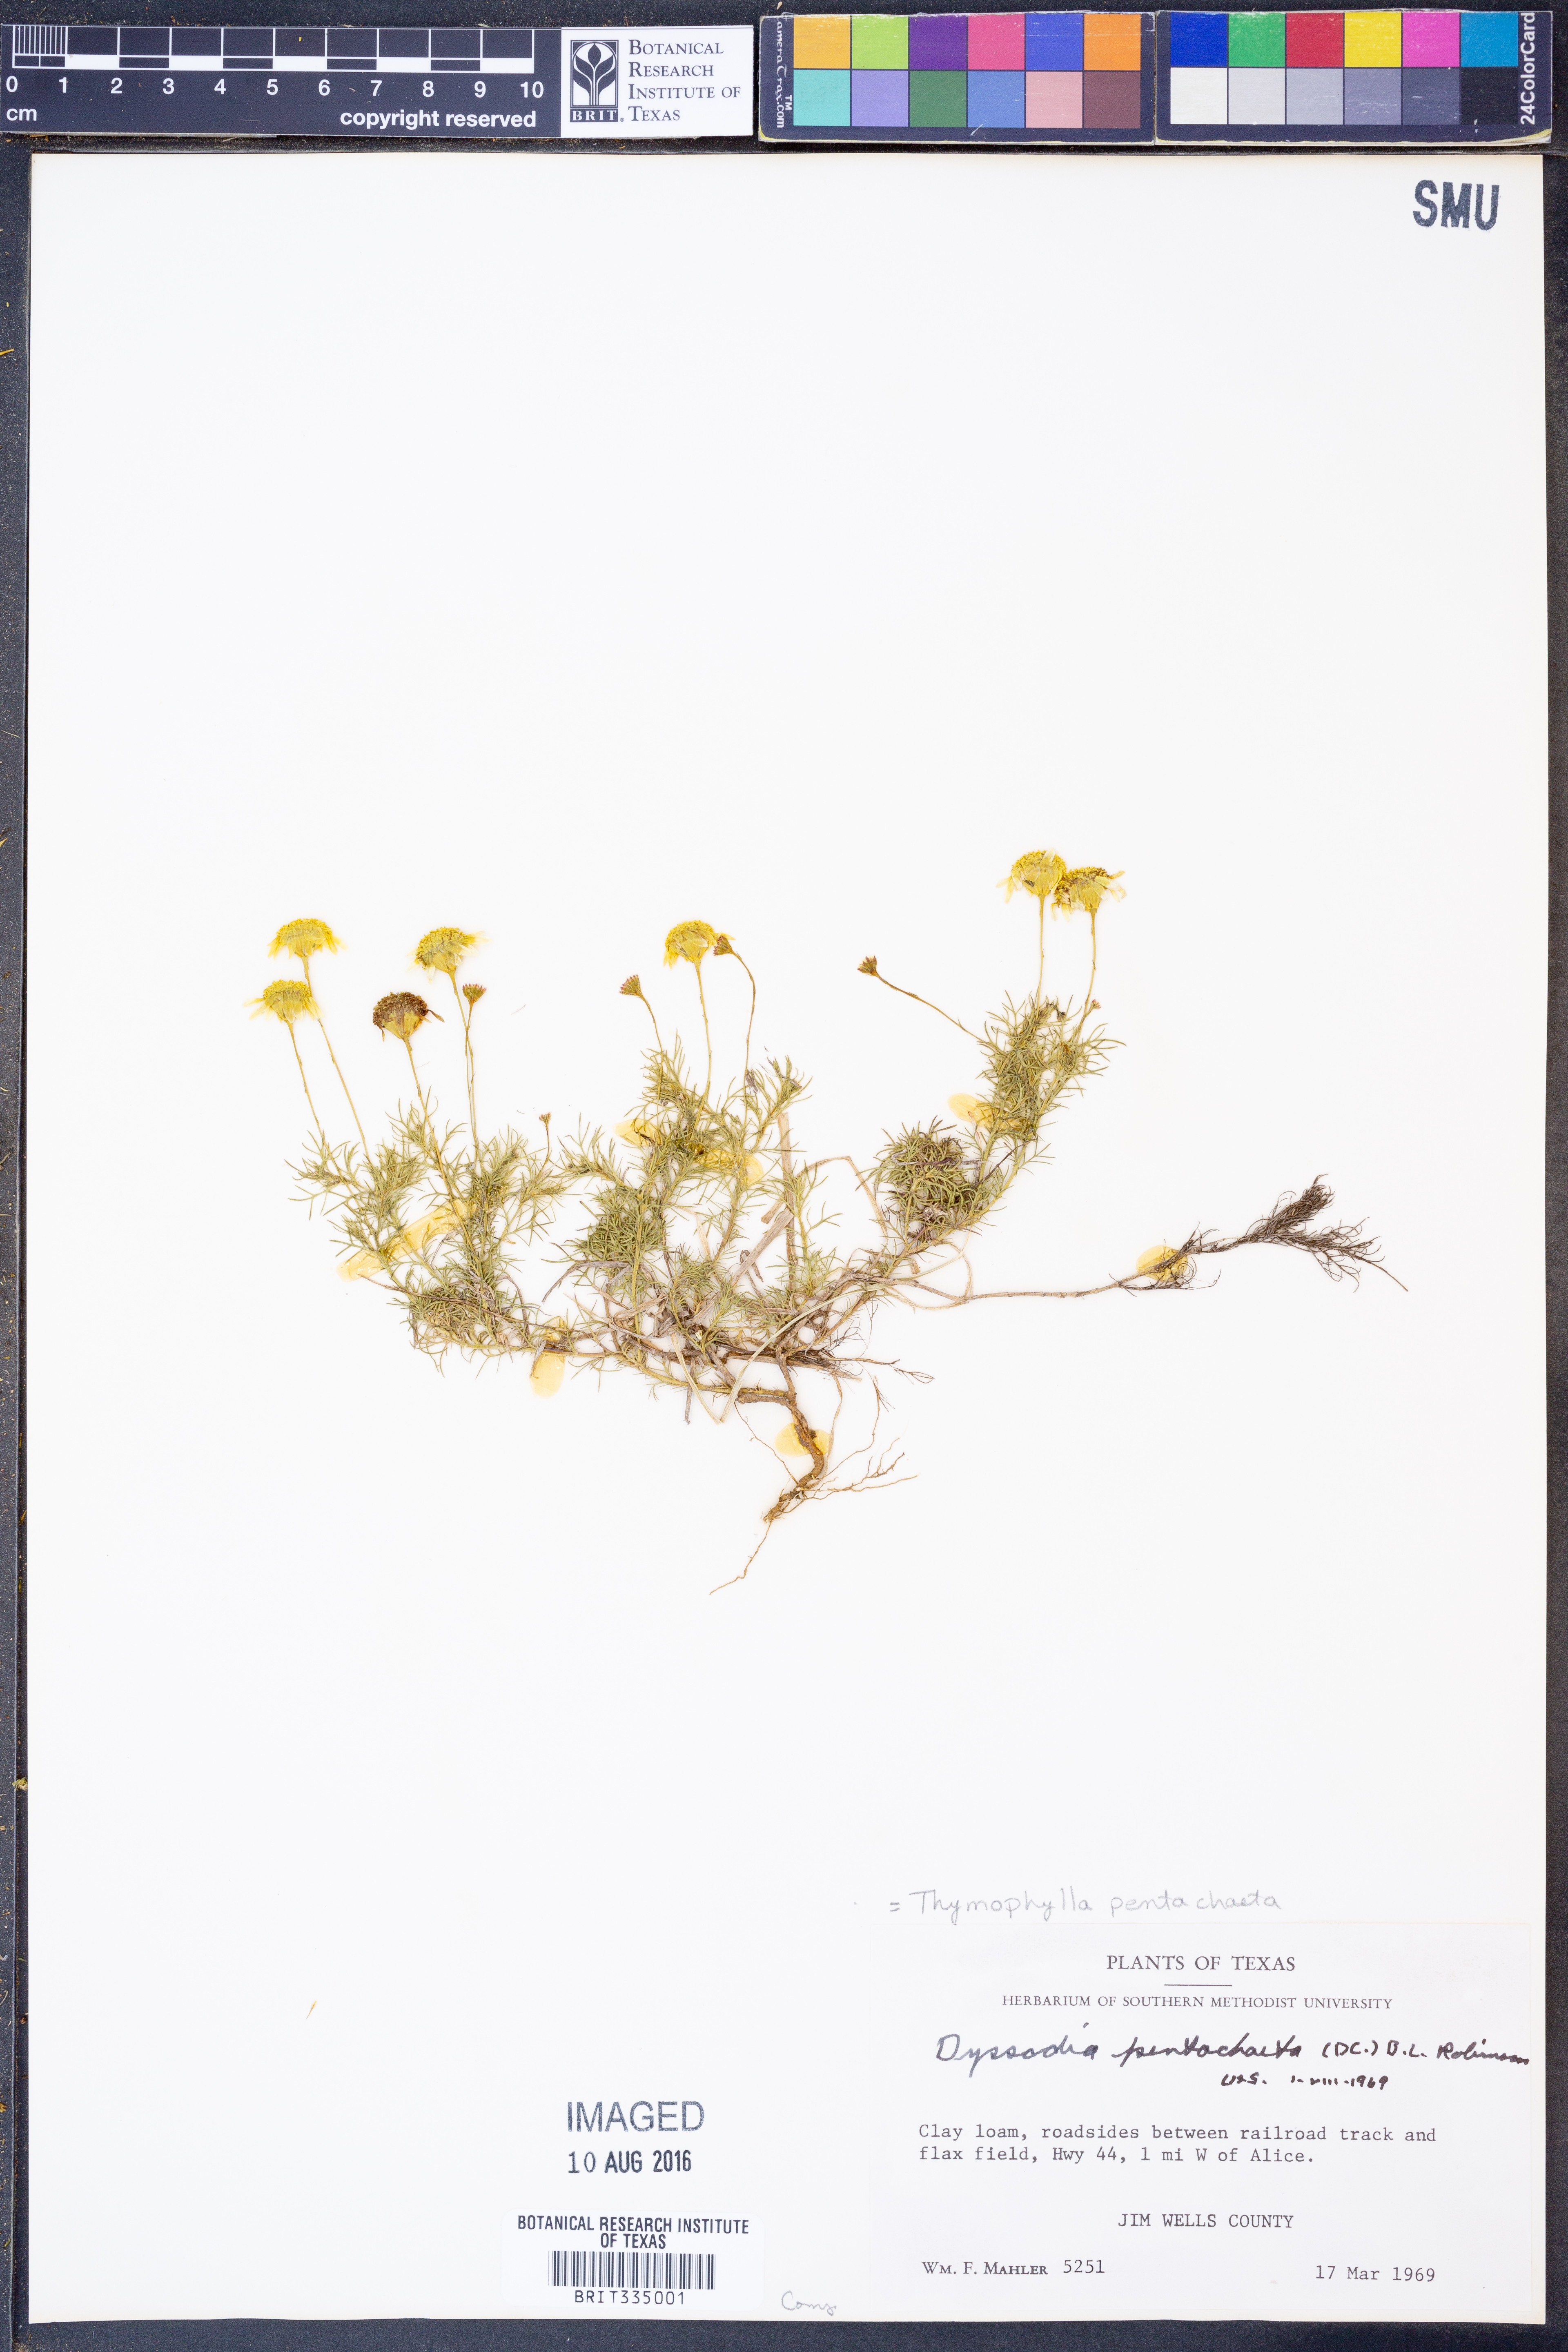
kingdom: Plantae
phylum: Tracheophyta
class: Magnoliopsida
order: Asterales
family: Asteraceae
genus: Thymophylla
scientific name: Thymophylla pentachaeta
